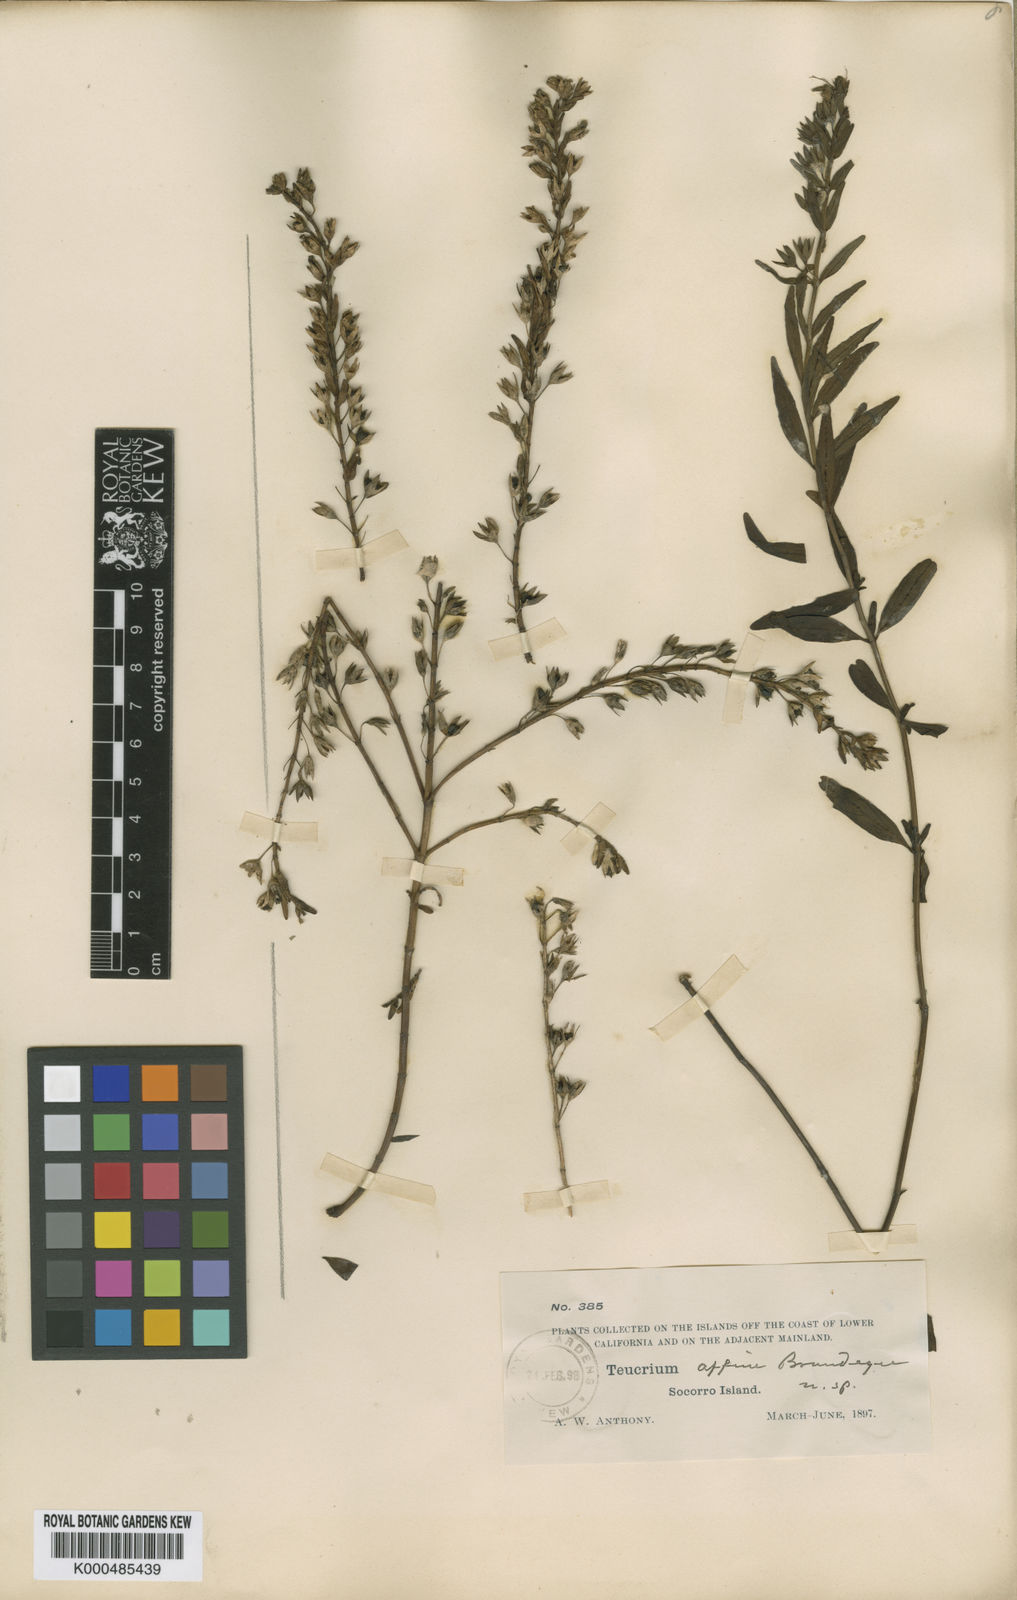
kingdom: Plantae
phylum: Tracheophyta
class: Magnoliopsida
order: Lamiales
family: Lamiaceae
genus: Teucrium
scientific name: Teucrium townsendii
